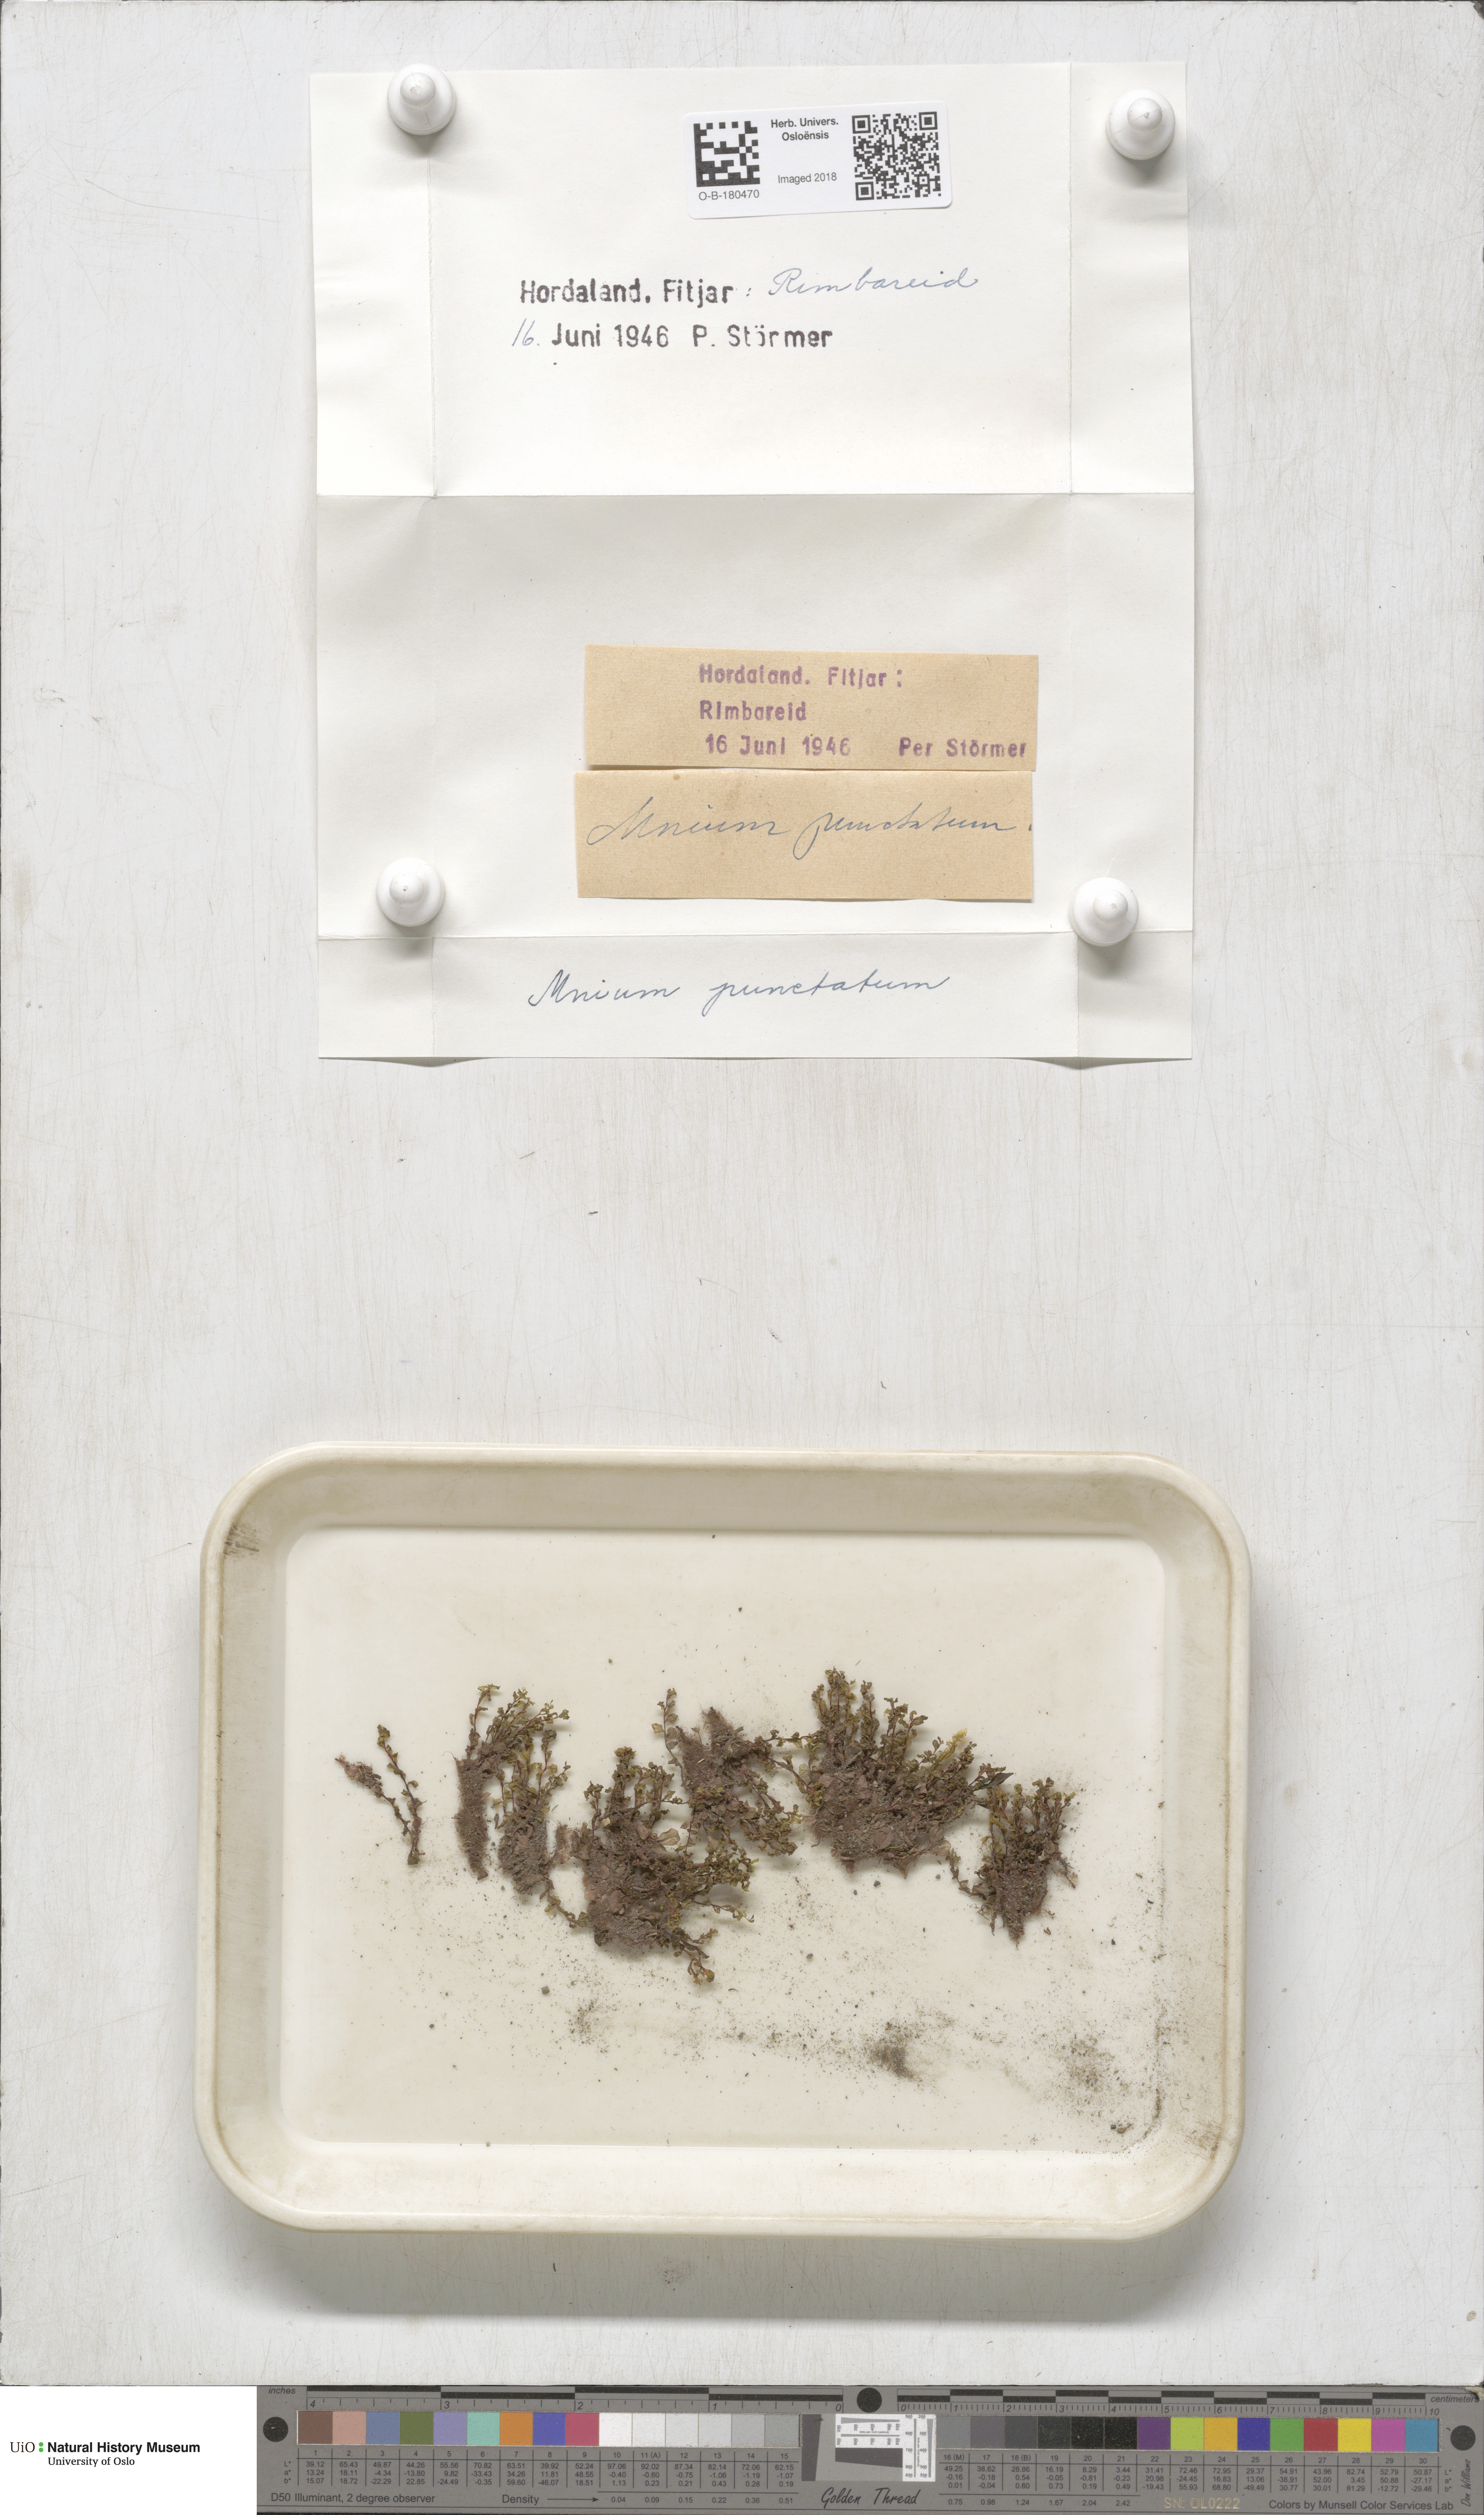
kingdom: Plantae
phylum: Bryophyta
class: Bryopsida
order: Bryales
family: Mniaceae
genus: Rhizomnium
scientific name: Rhizomnium punctatum
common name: Dotted leafy moss
